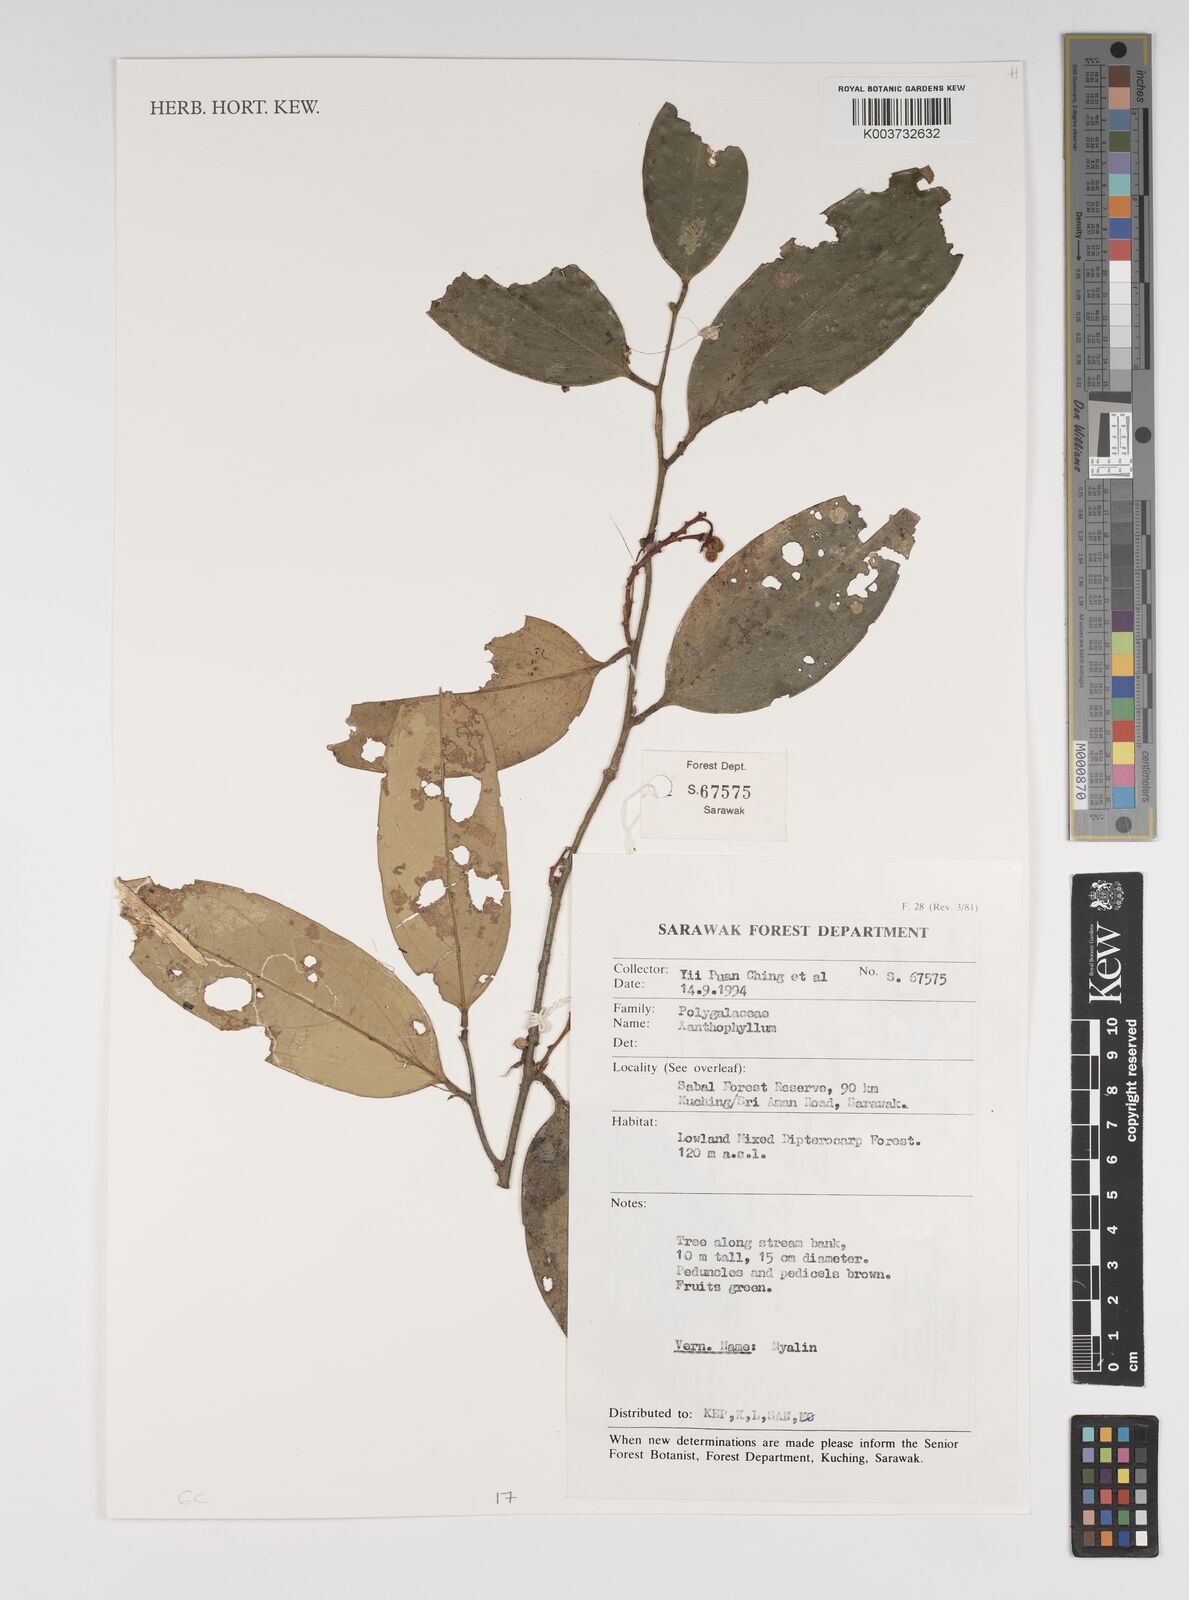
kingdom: Plantae
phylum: Tracheophyta
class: Magnoliopsida
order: Fabales
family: Polygalaceae
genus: Xanthophyllum
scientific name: Xanthophyllum
